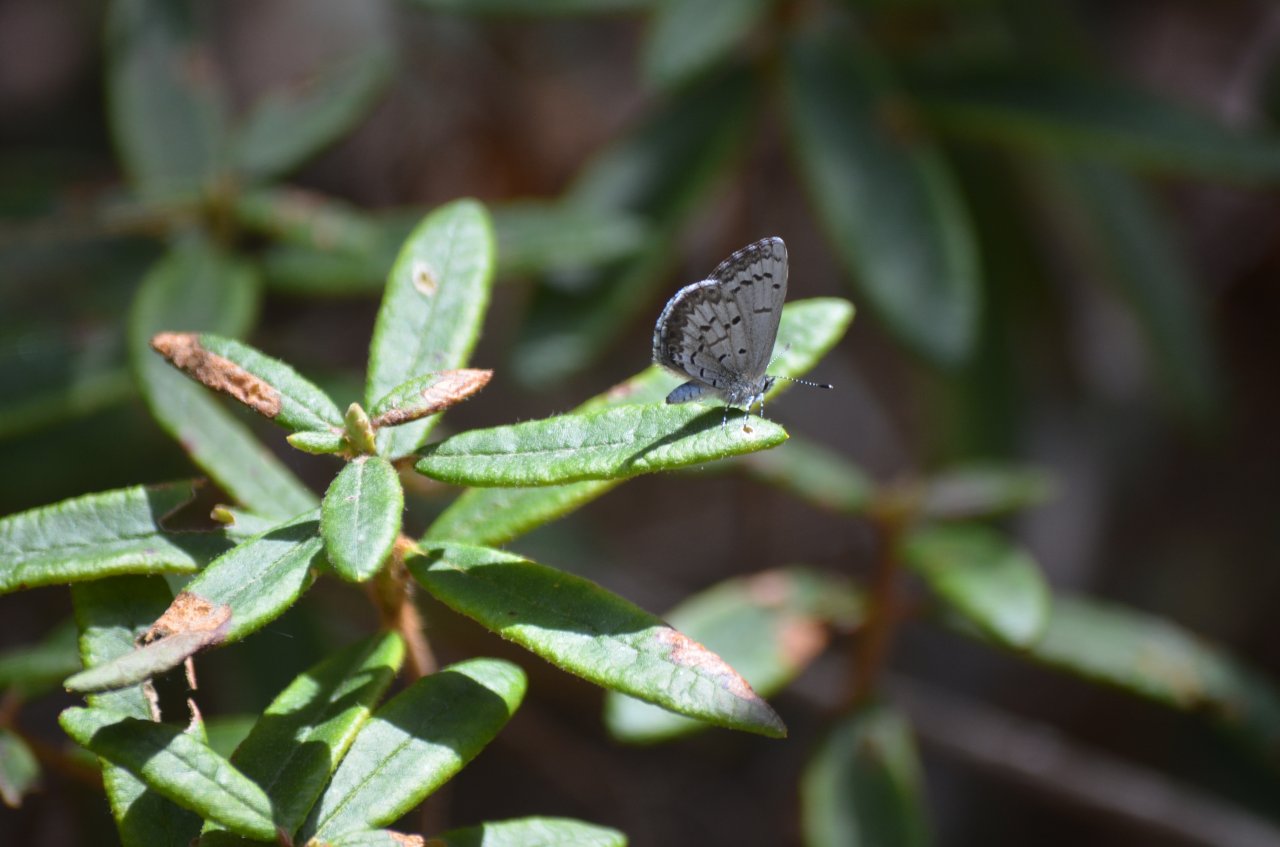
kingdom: Animalia
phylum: Arthropoda
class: Insecta
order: Lepidoptera
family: Lycaenidae
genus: Celastrina
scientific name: Celastrina lucia
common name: Northern Spring Azure
